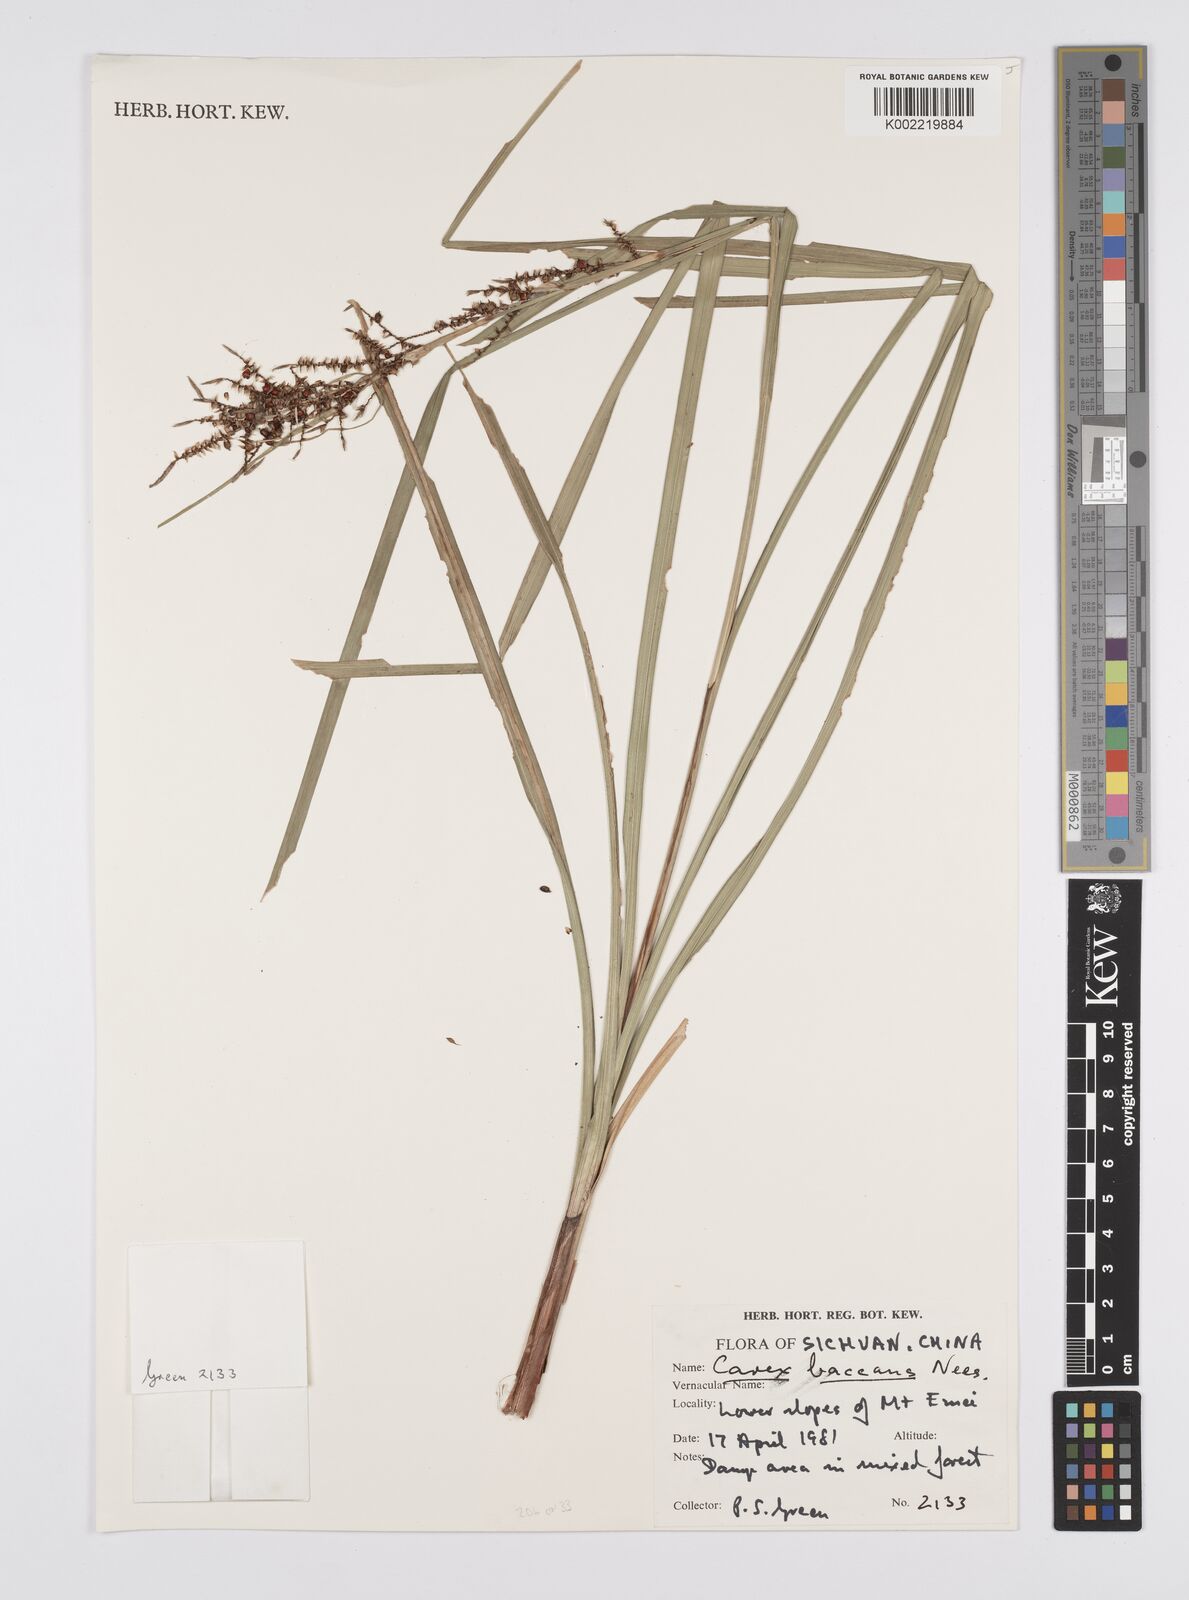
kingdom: Plantae
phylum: Tracheophyta
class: Liliopsida
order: Poales
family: Cyperaceae
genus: Carex
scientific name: Carex baccans
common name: Crimson seeded sedge
